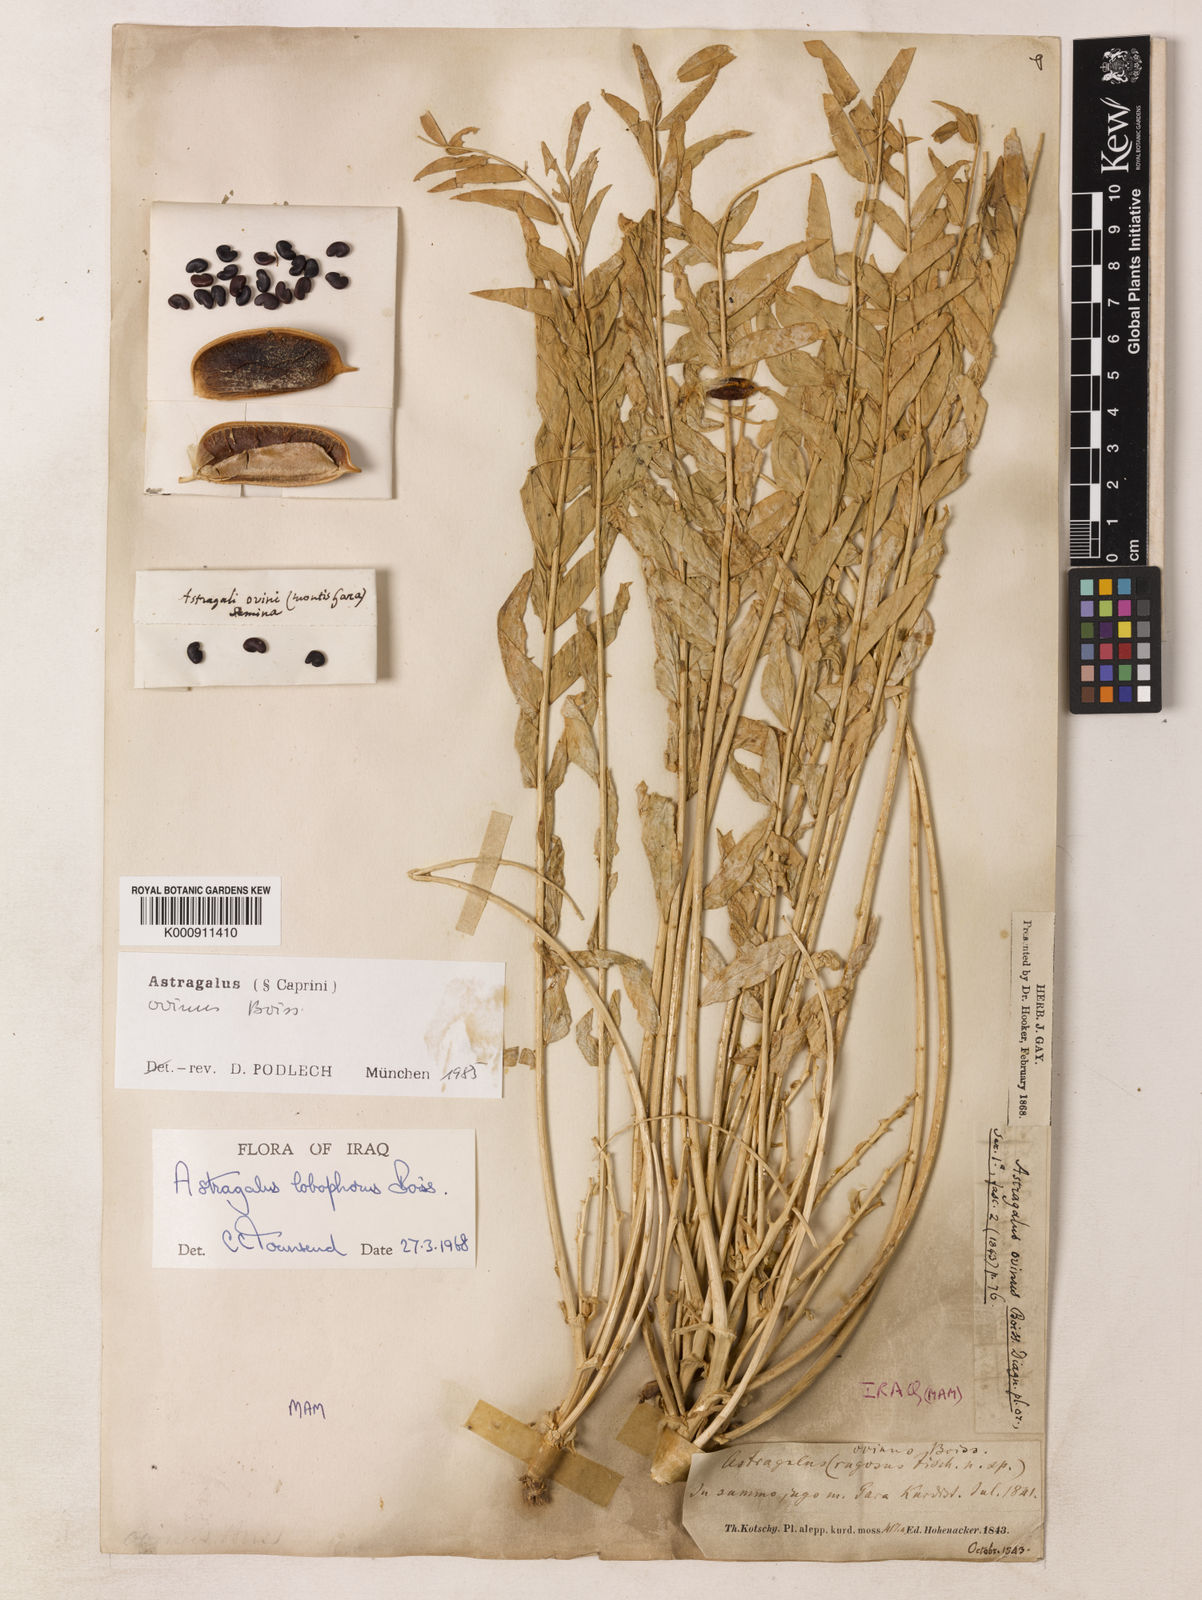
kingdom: Plantae
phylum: Tracheophyta
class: Magnoliopsida
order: Fabales
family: Fabaceae
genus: Astragalus
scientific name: Astragalus ovinus
